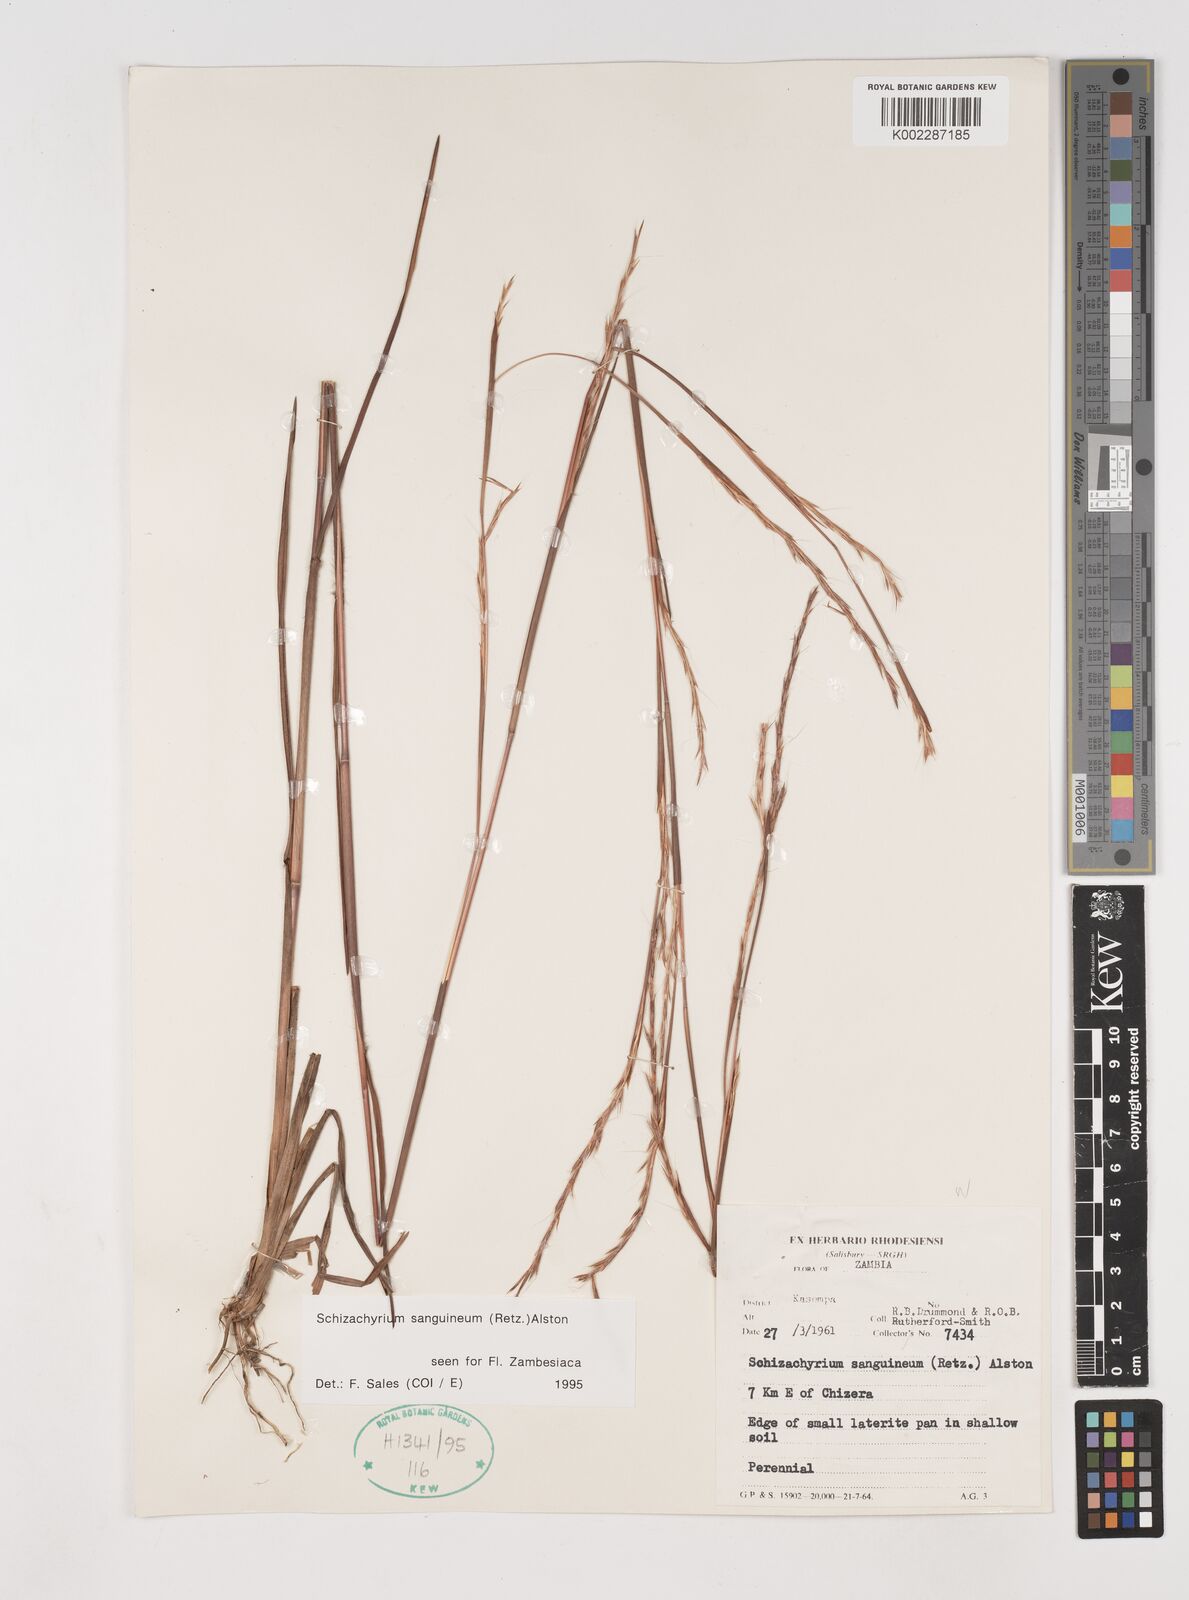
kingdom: Plantae
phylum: Tracheophyta
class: Liliopsida
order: Poales
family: Poaceae
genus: Schizachyrium
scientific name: Schizachyrium sanguineum
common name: Crimson bluestem
